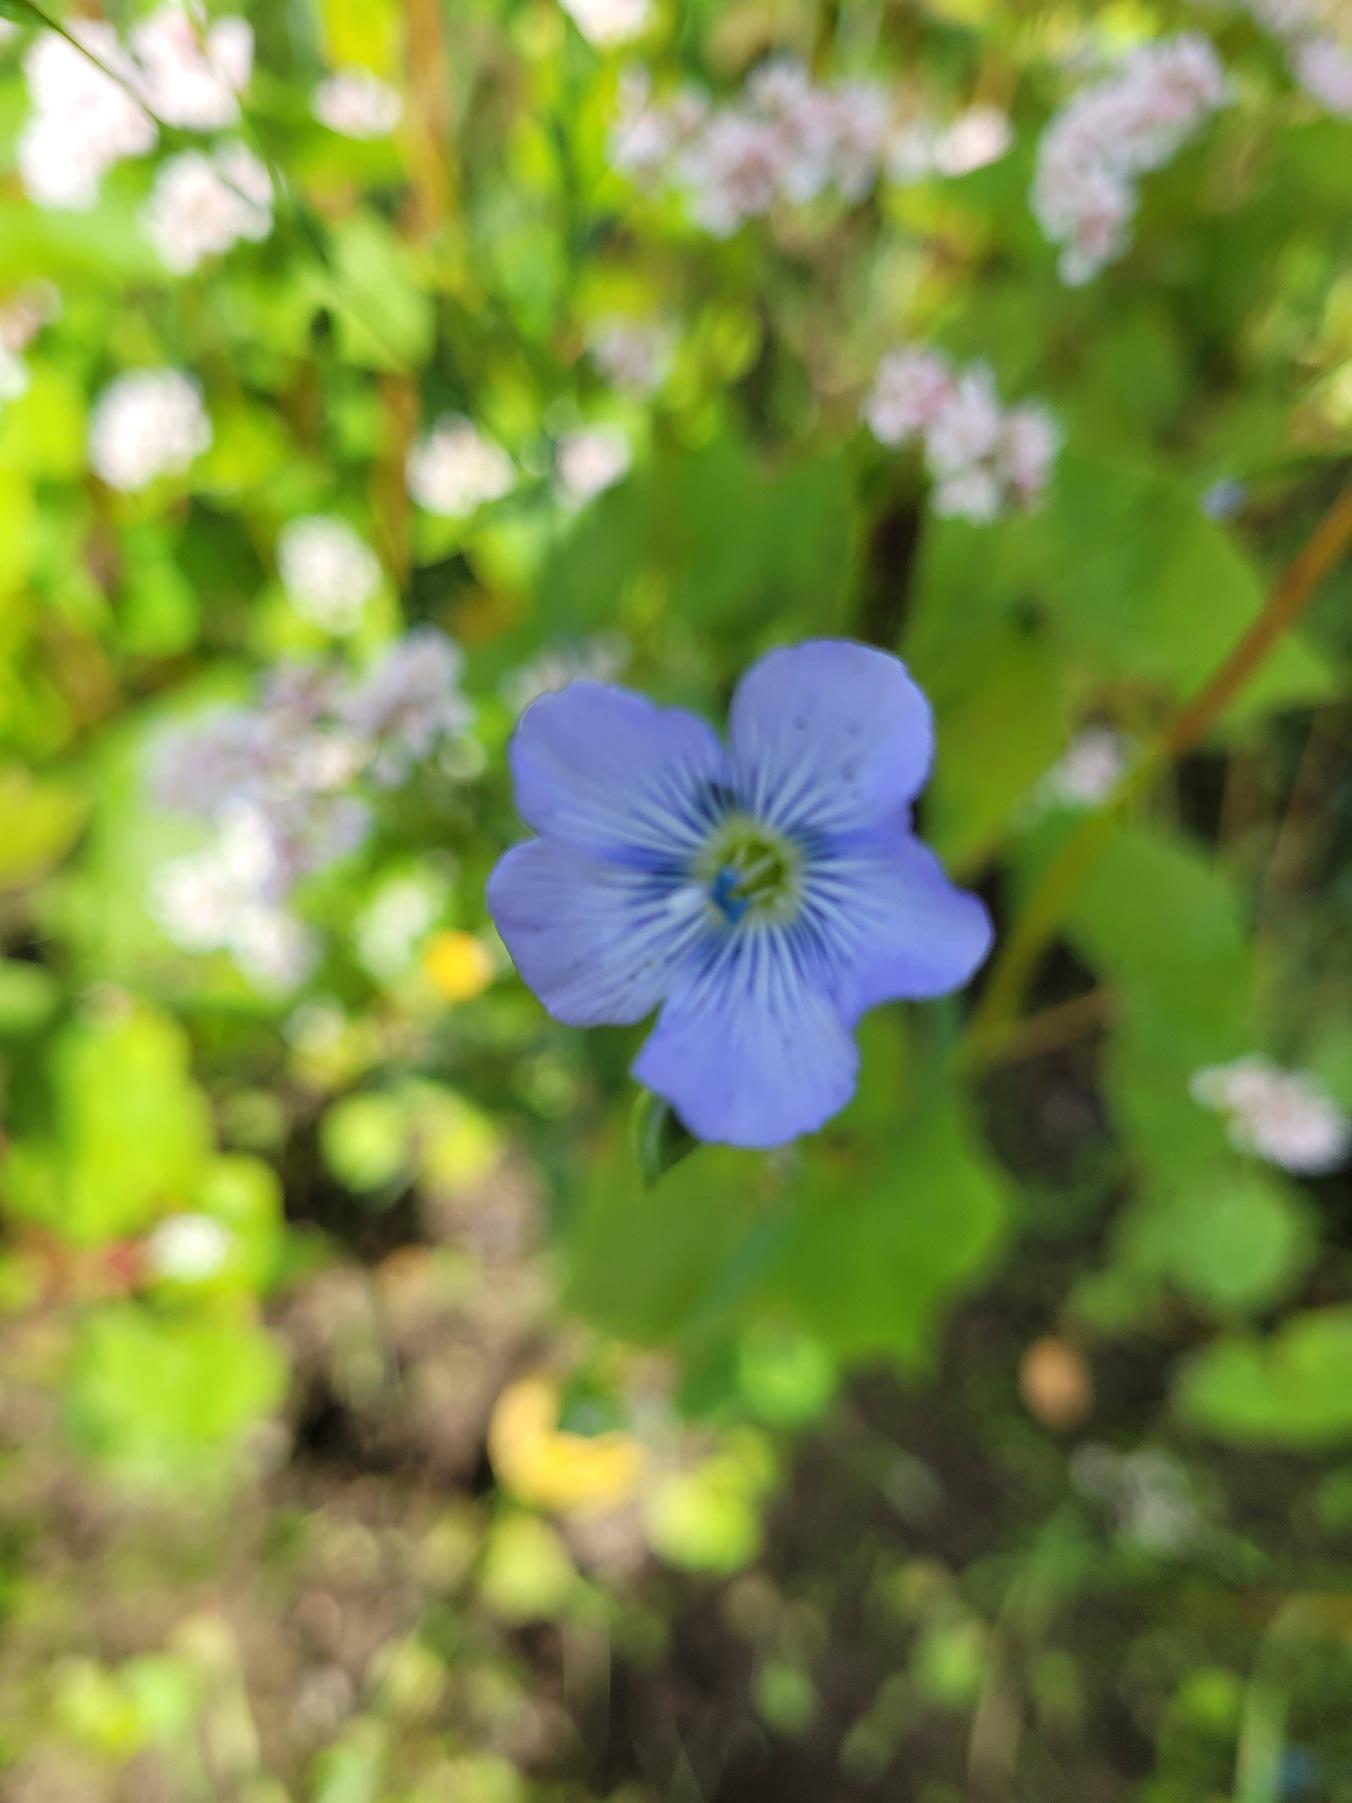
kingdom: Plantae
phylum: Tracheophyta
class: Magnoliopsida
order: Malpighiales
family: Linaceae
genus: Linum
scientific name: Linum
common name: Hørslægten
